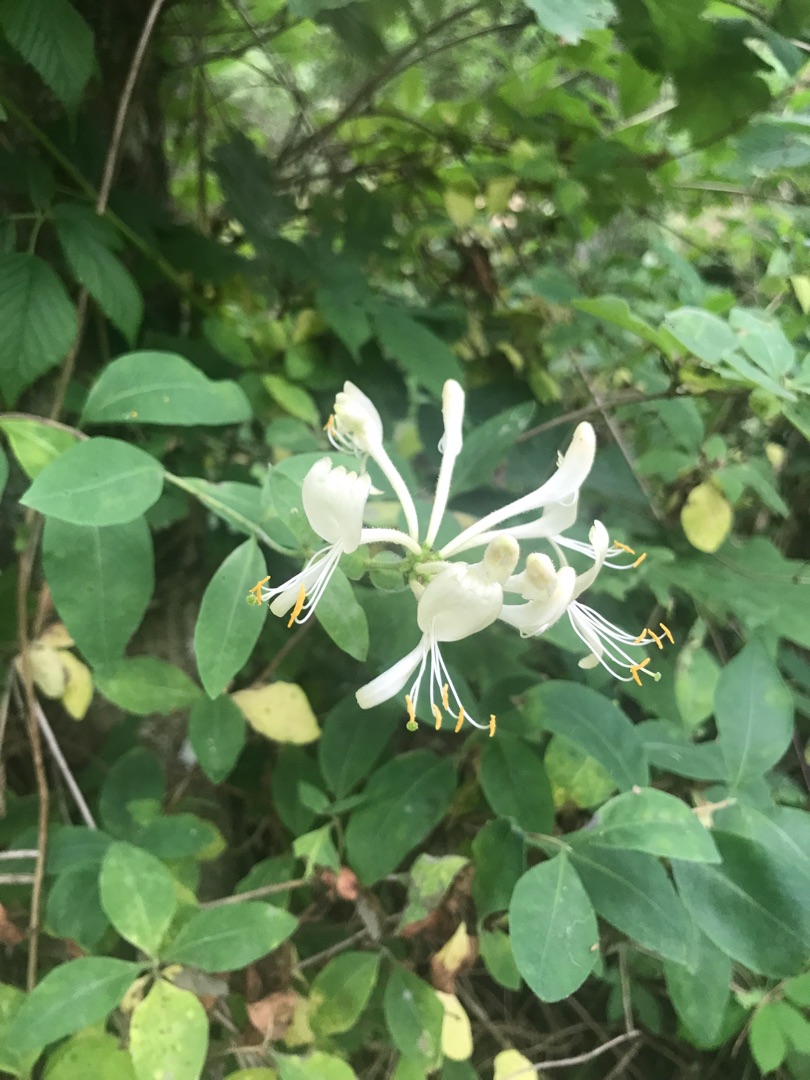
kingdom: Plantae
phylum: Tracheophyta
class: Magnoliopsida
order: Dipsacales
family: Caprifoliaceae
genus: Lonicera
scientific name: Lonicera periclymenum
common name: Almindelig gedeblad
